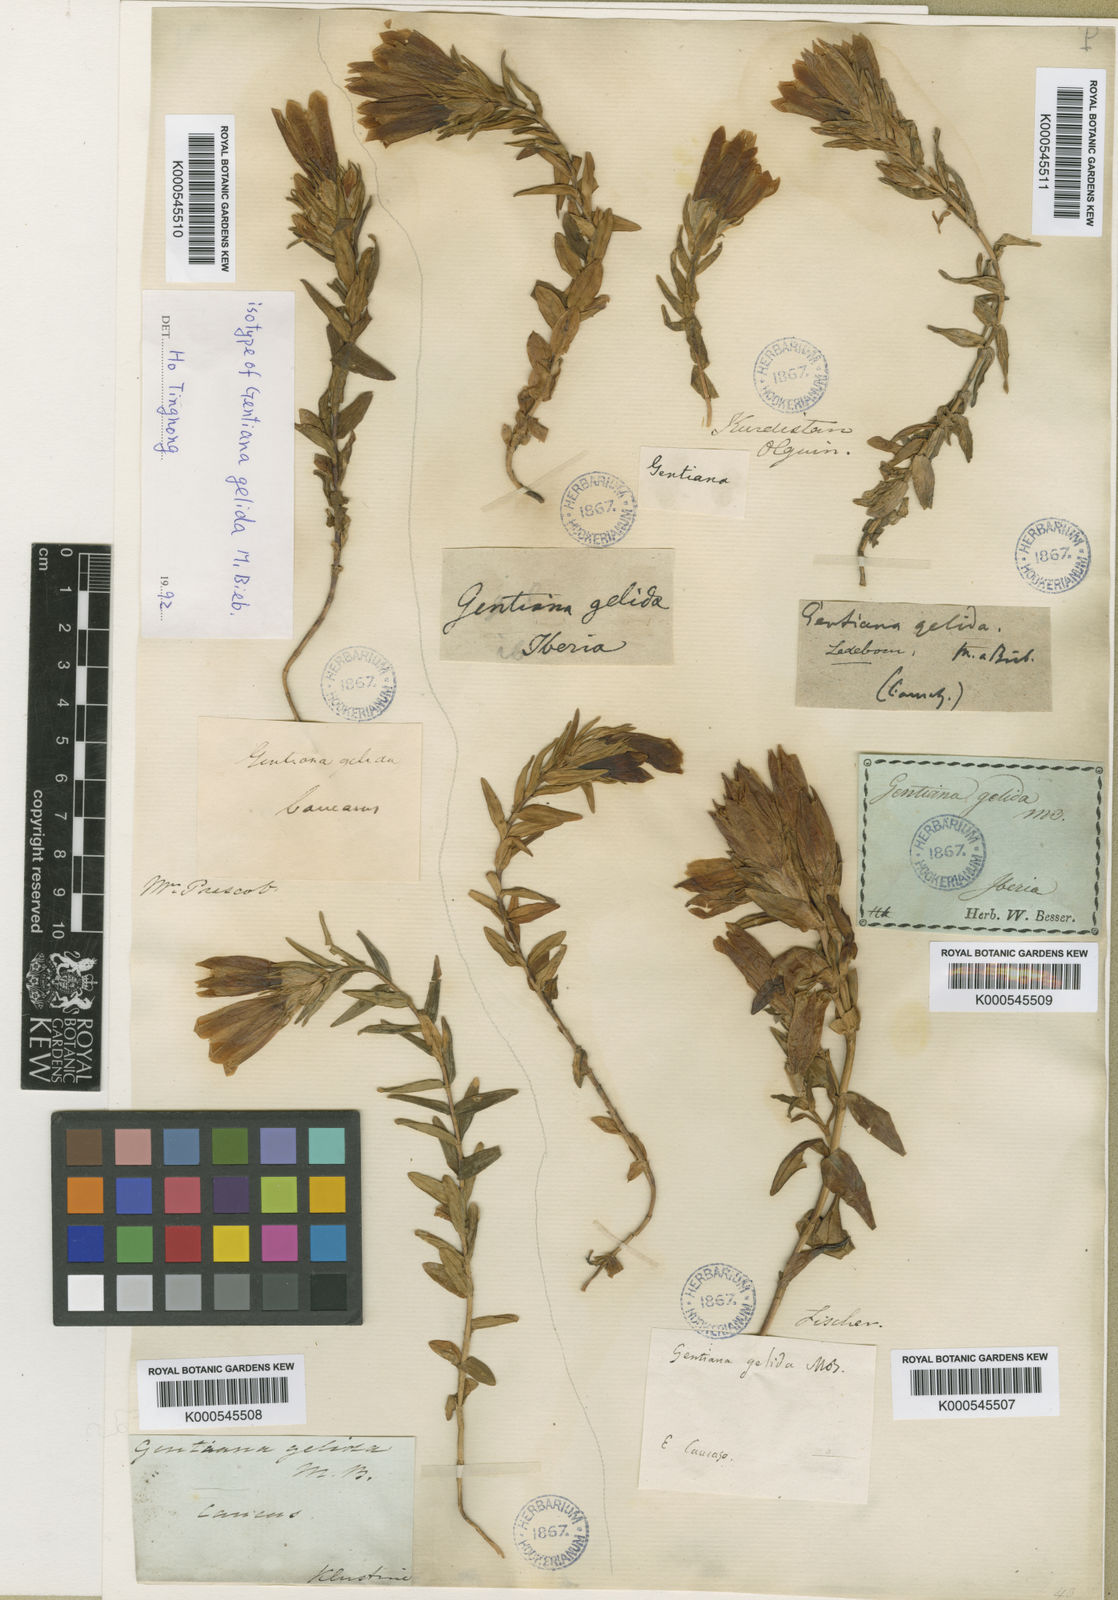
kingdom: Plantae
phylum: Tracheophyta
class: Magnoliopsida
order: Gentianales
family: Gentianaceae
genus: Gentiana
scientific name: Gentiana gelida
